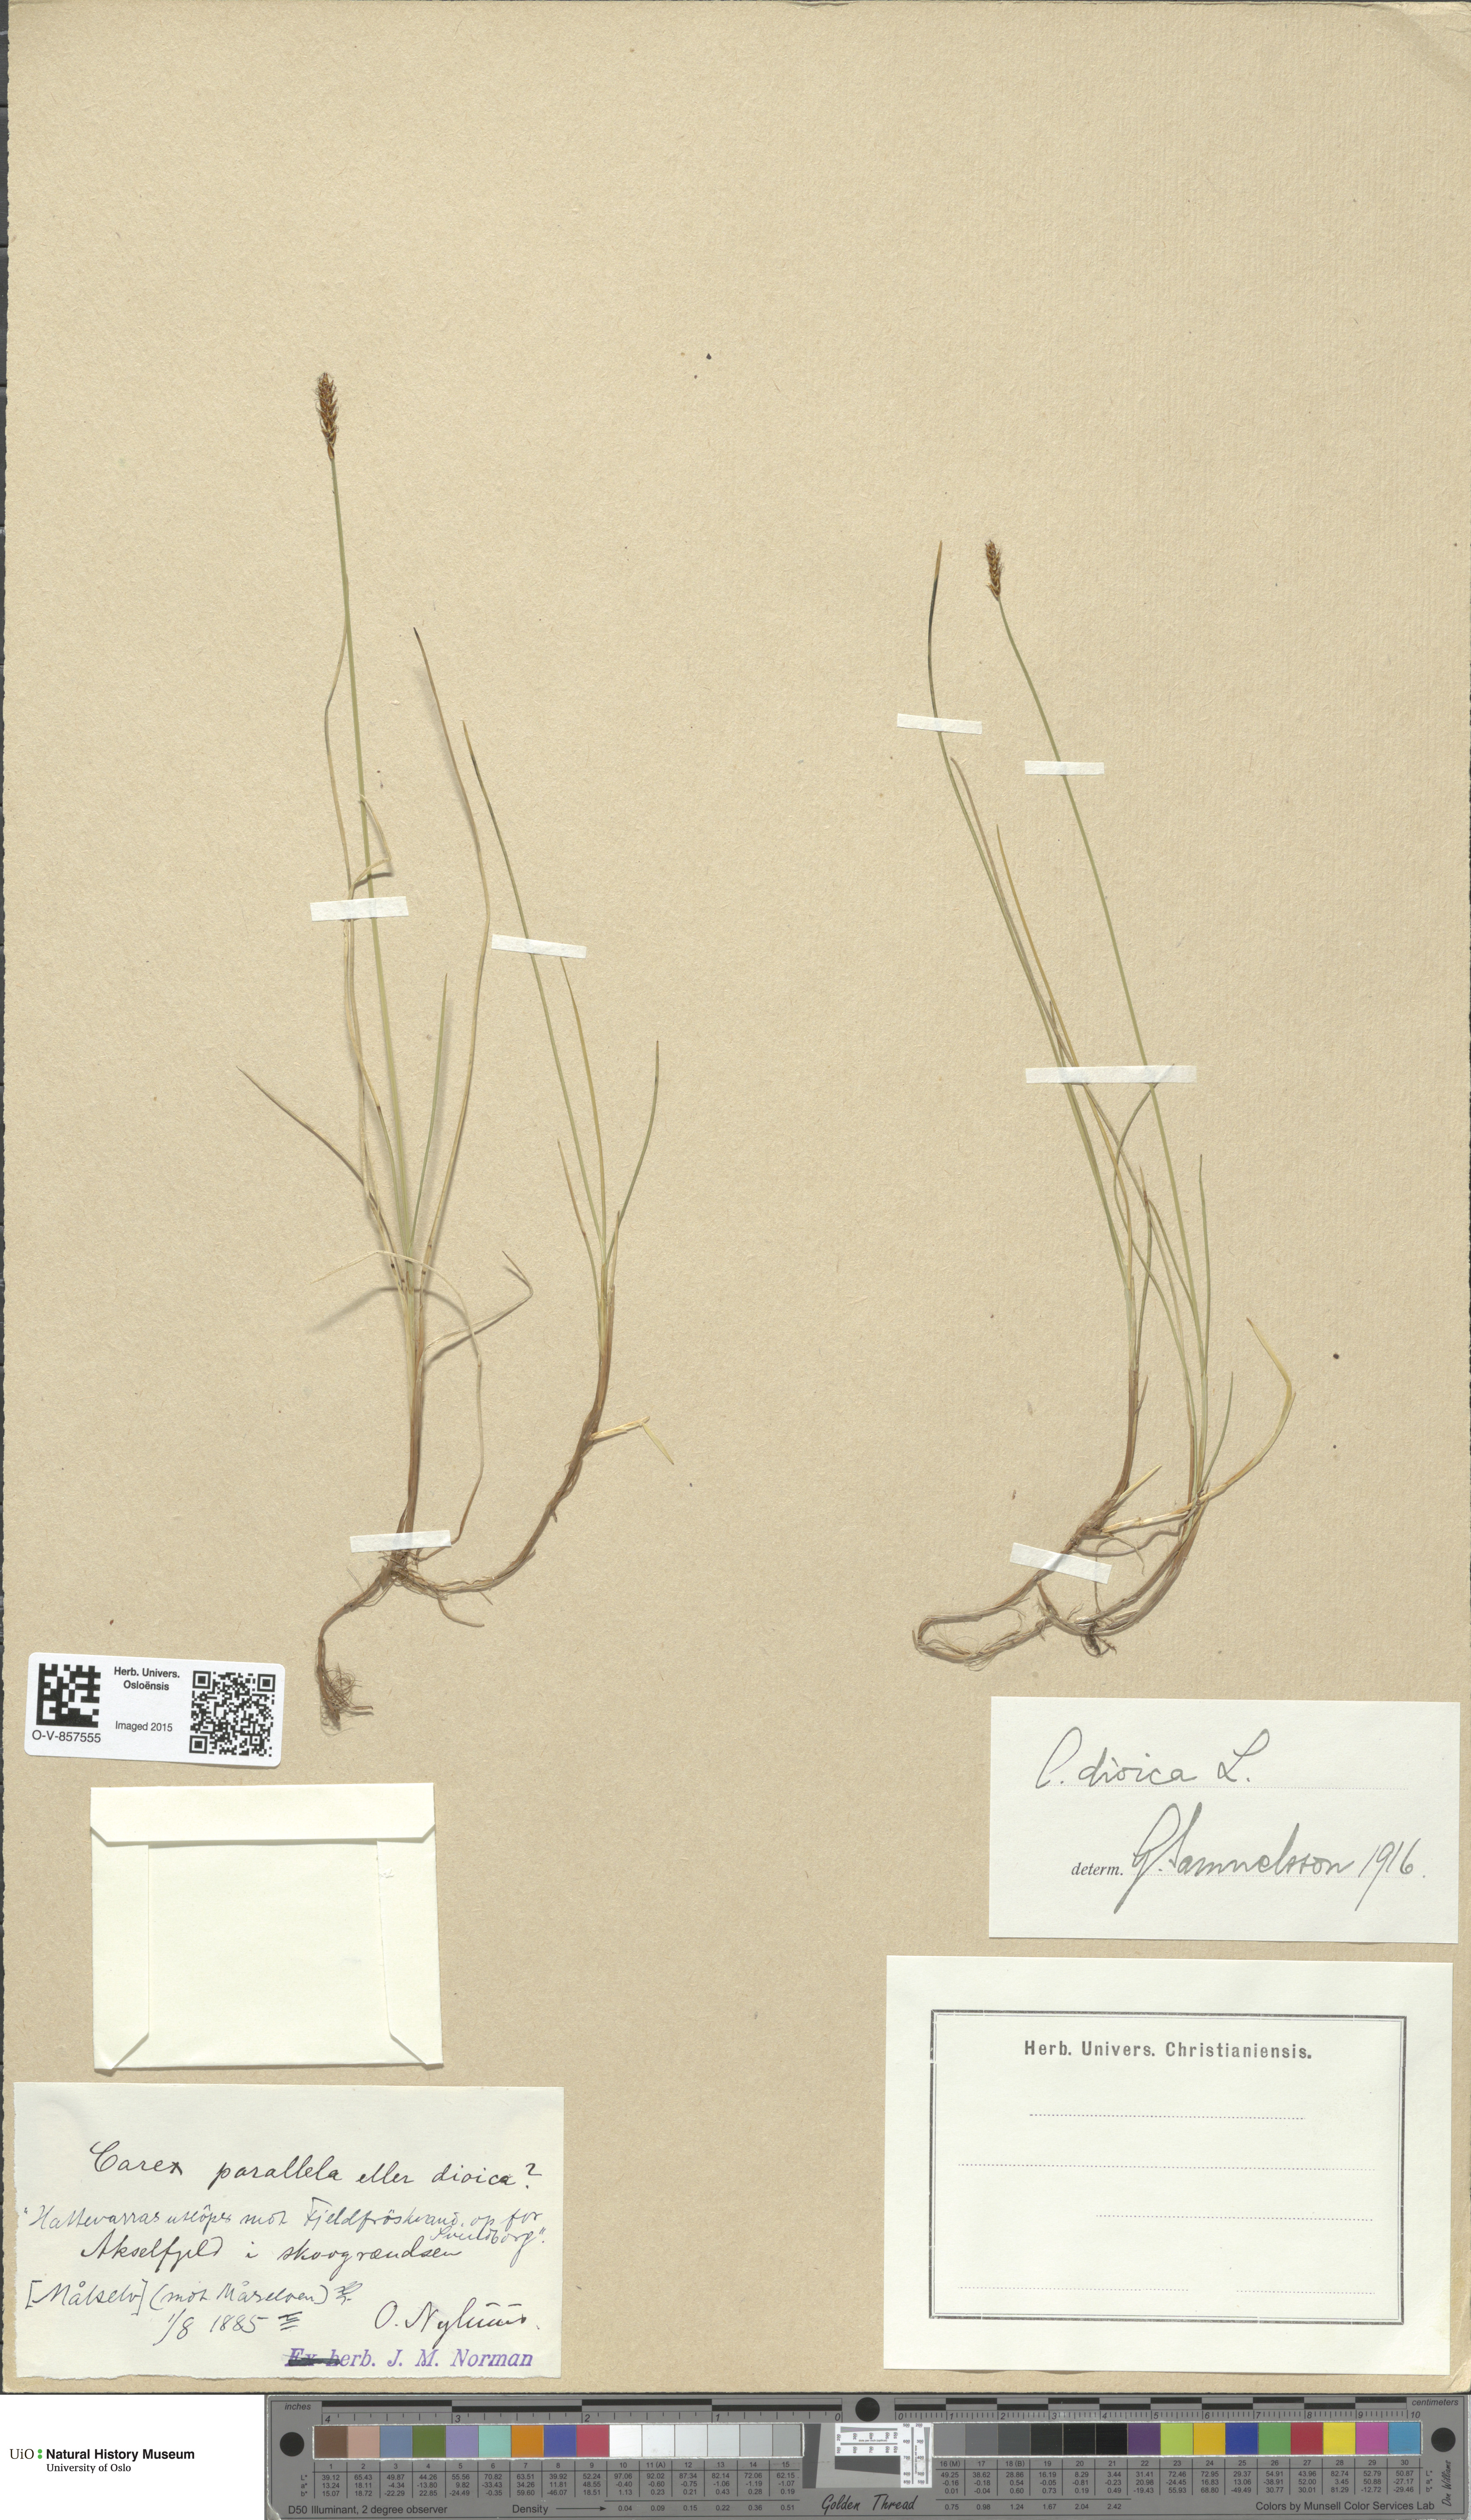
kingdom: Plantae
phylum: Tracheophyta
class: Liliopsida
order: Poales
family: Cyperaceae
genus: Carex
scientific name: Carex dioica
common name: Dioecious sedge
